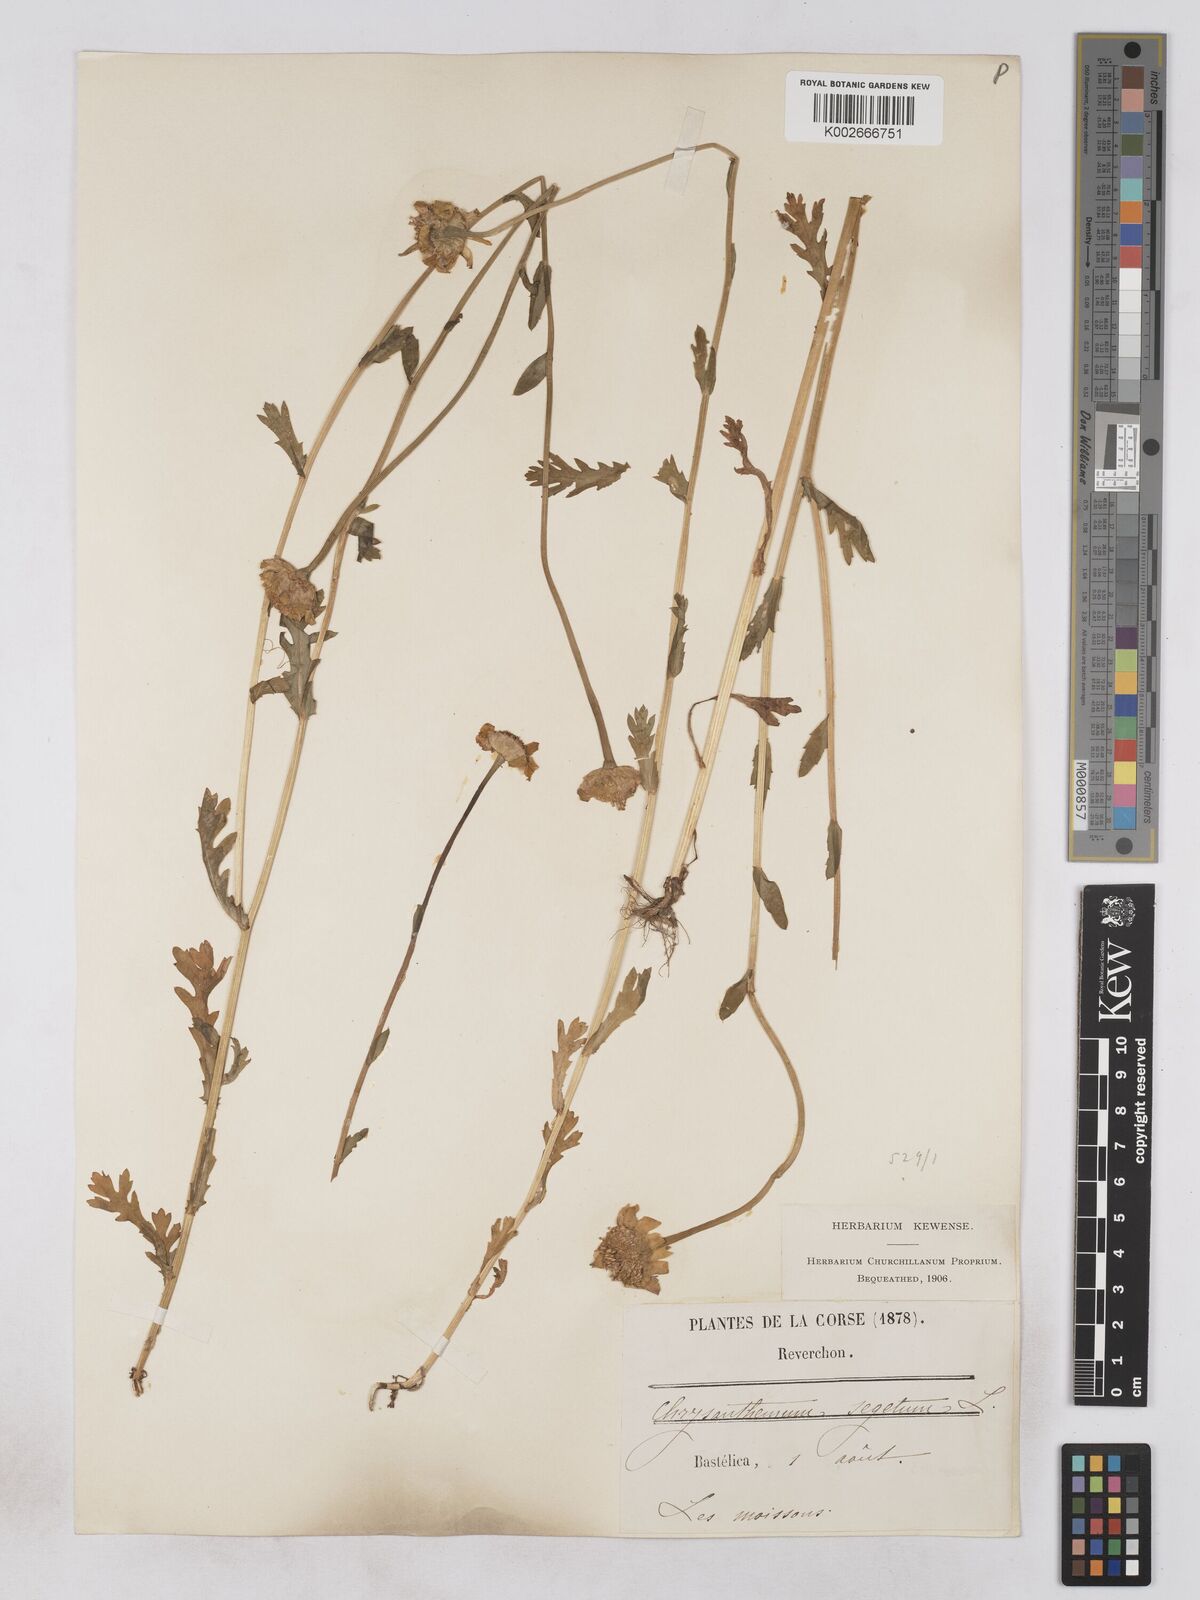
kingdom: Plantae
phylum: Tracheophyta
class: Magnoliopsida
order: Asterales
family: Asteraceae
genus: Glebionis
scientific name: Glebionis segetum
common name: Corndaisy
